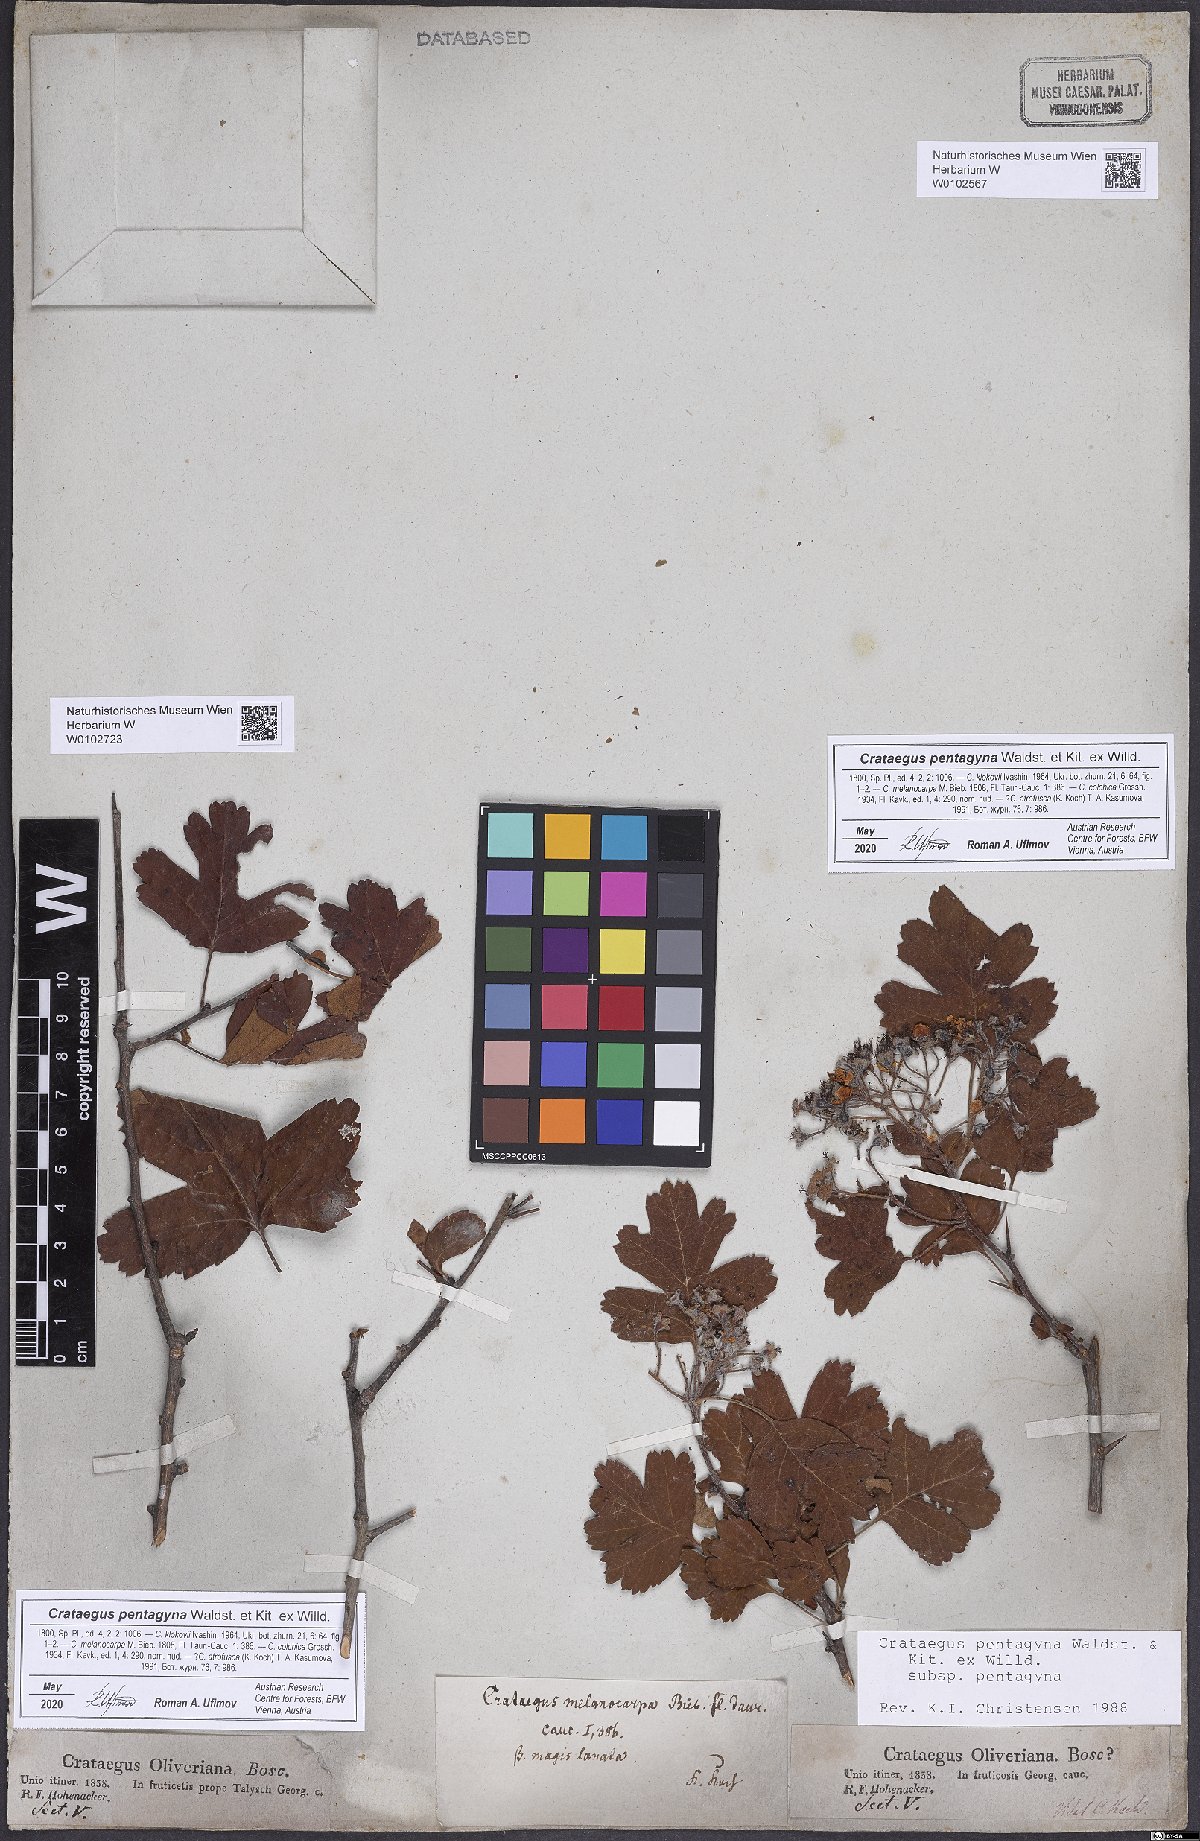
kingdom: Plantae
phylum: Tracheophyta
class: Magnoliopsida
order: Rosales
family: Rosaceae
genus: Crataegus
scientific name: Crataegus pentagyna
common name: Small-flowered black hawthorn
